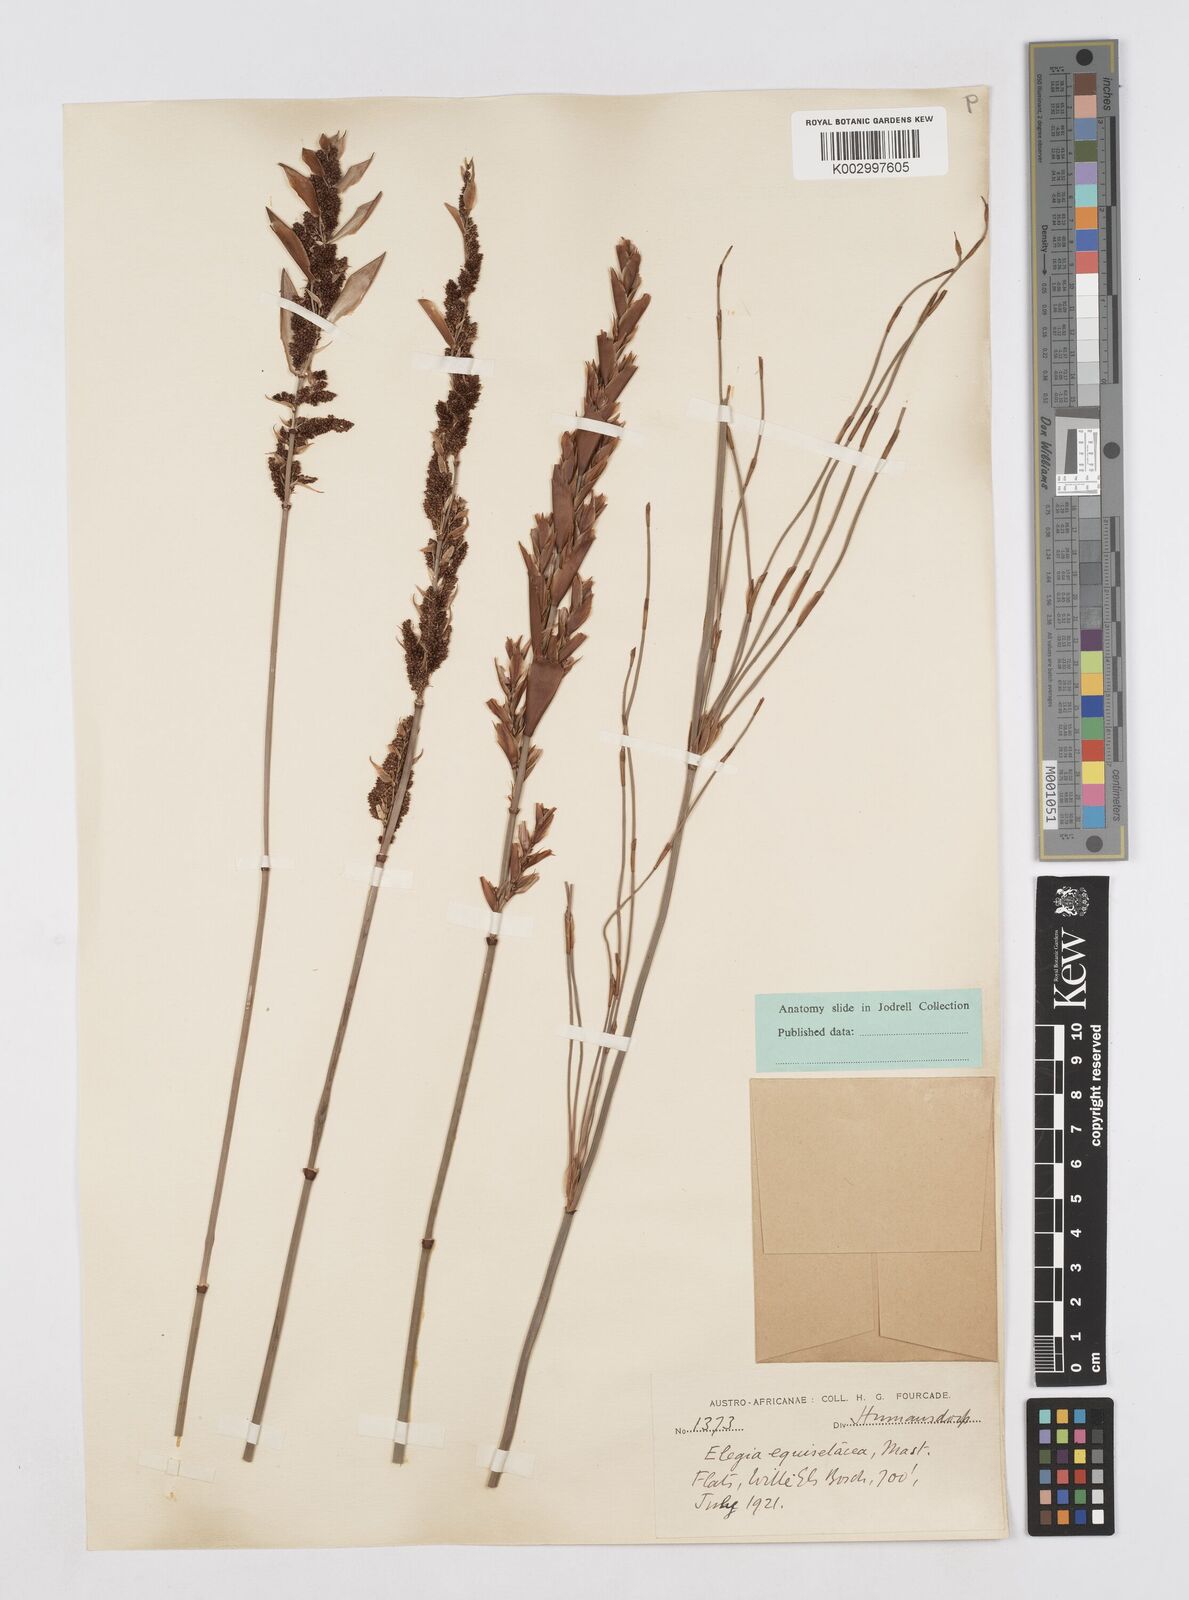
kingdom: Plantae
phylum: Tracheophyta
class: Liliopsida
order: Poales
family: Restionaceae
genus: Elegia
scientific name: Elegia equisetacea
